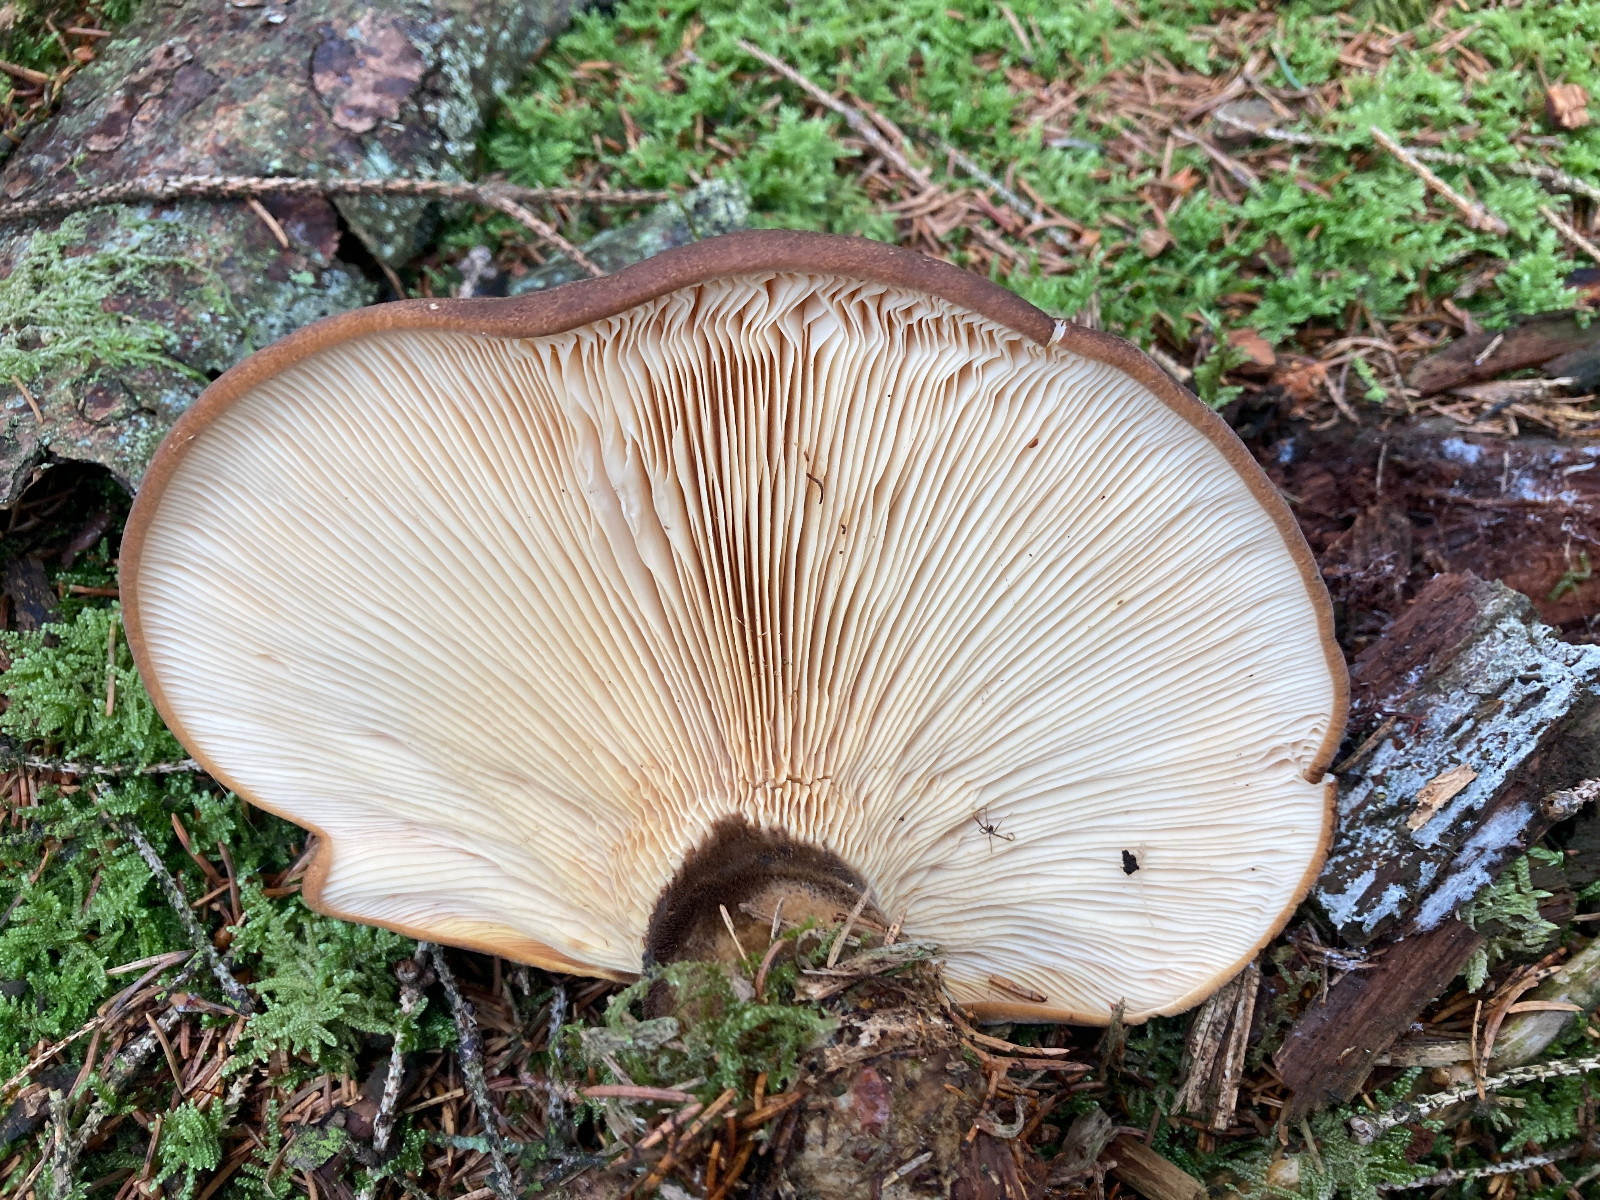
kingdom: Fungi
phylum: Basidiomycota
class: Agaricomycetes
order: Boletales
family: Tapinellaceae
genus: Tapinella
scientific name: Tapinella atrotomentosa
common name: sortfiltet viftesvamp
